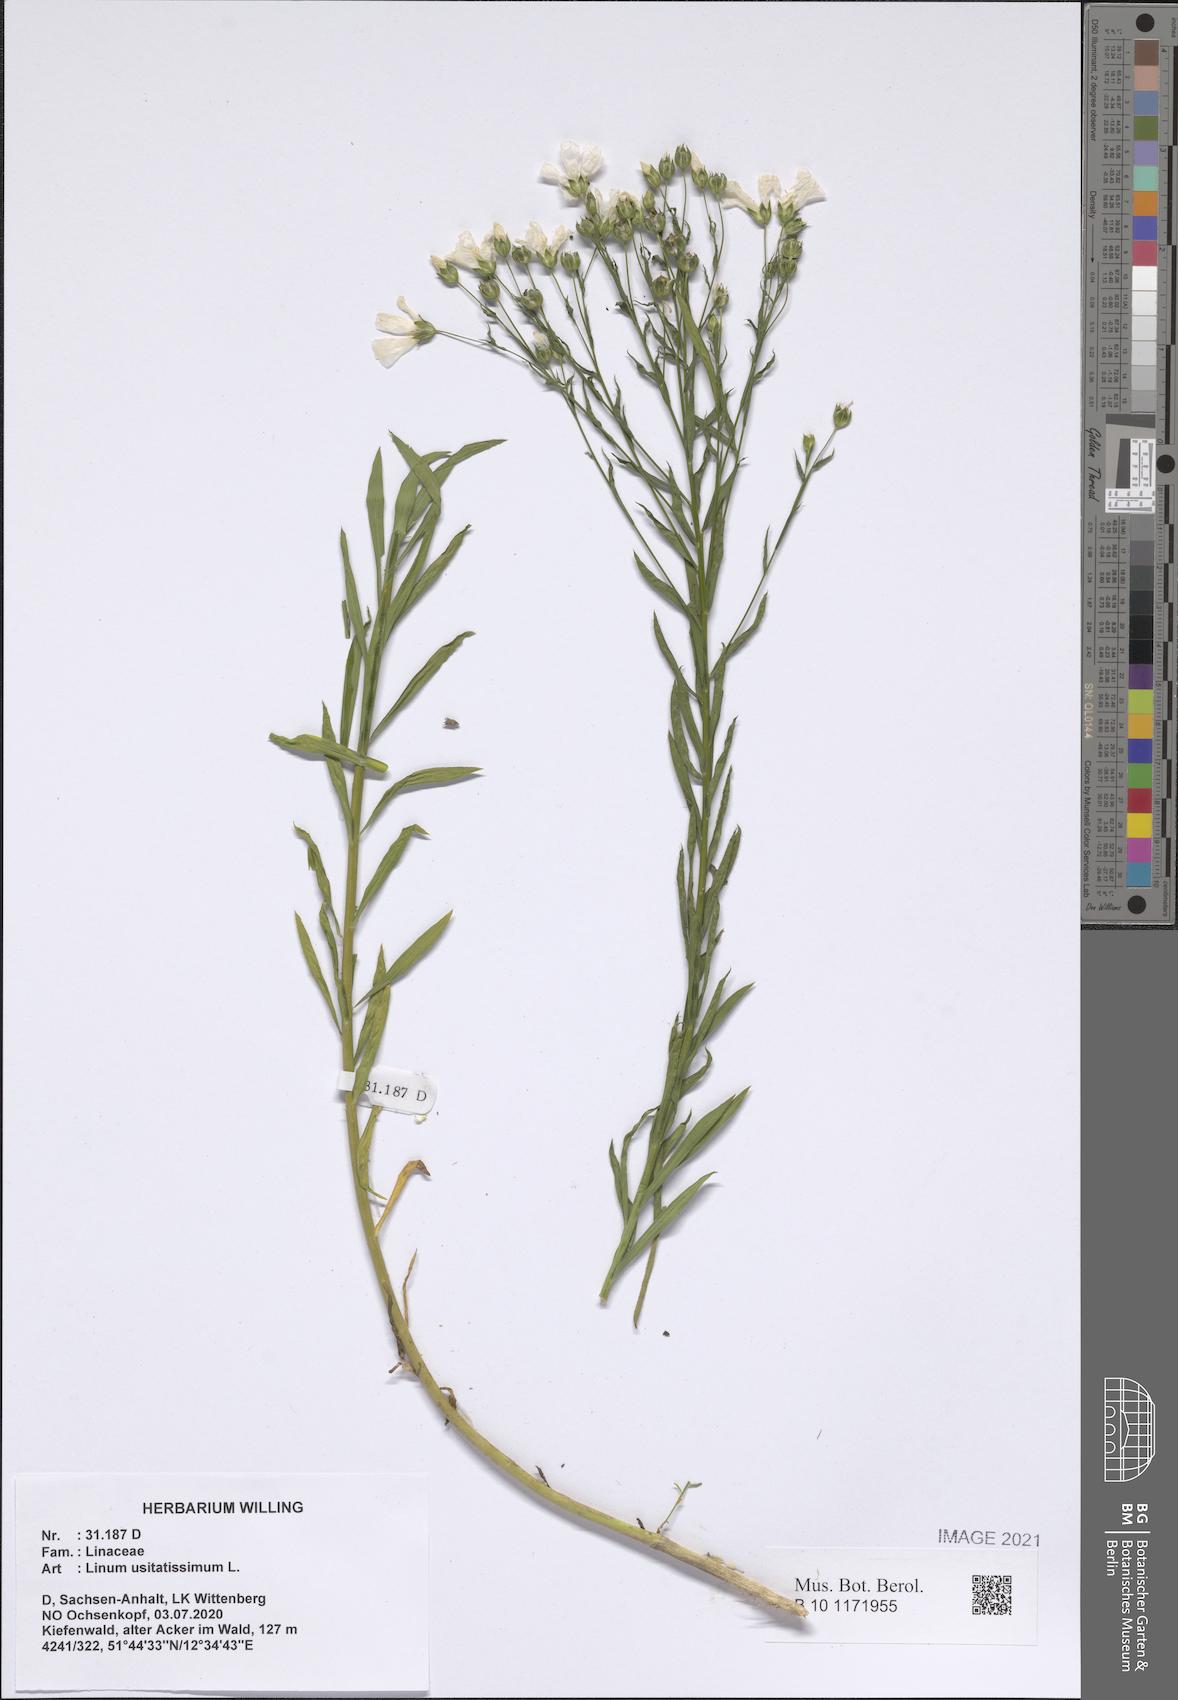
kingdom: Plantae
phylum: Tracheophyta
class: Magnoliopsida
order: Malpighiales
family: Linaceae
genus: Linum
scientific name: Linum usitatissimum
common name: Flax
